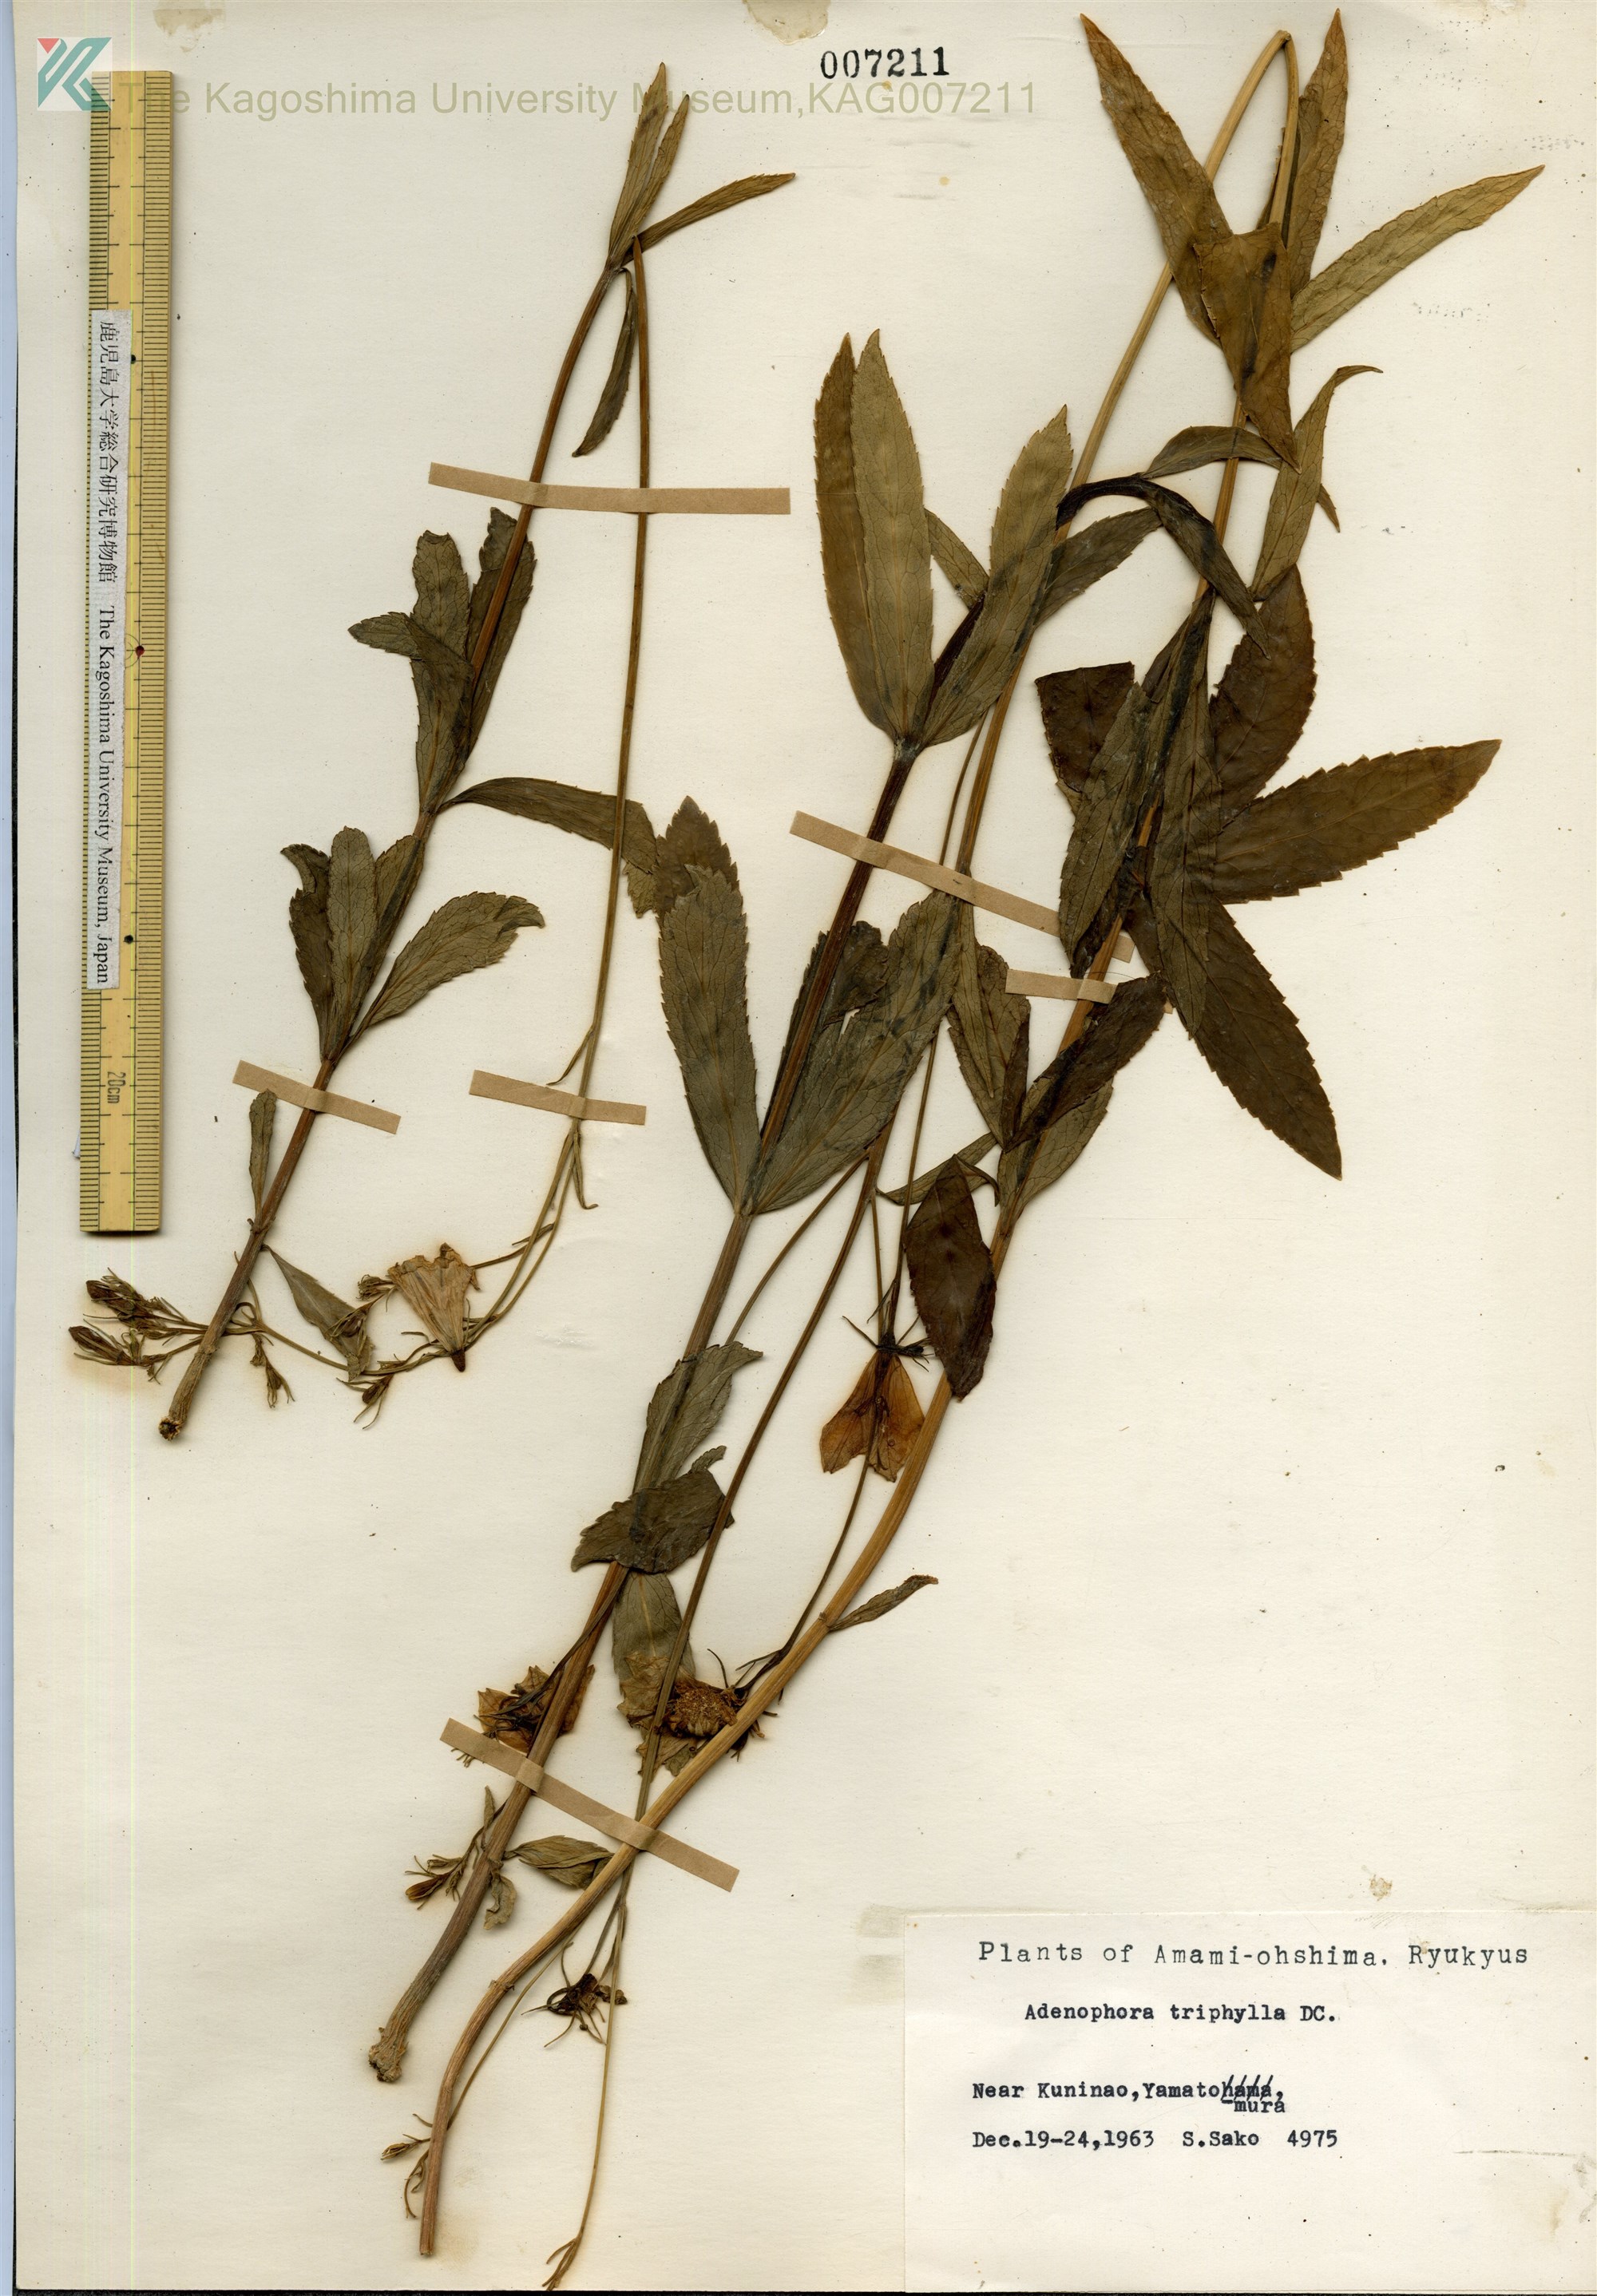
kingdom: Plantae
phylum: Tracheophyta
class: Magnoliopsida
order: Asterales
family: Campanulaceae
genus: Adenophora
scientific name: Adenophora tashiroi
